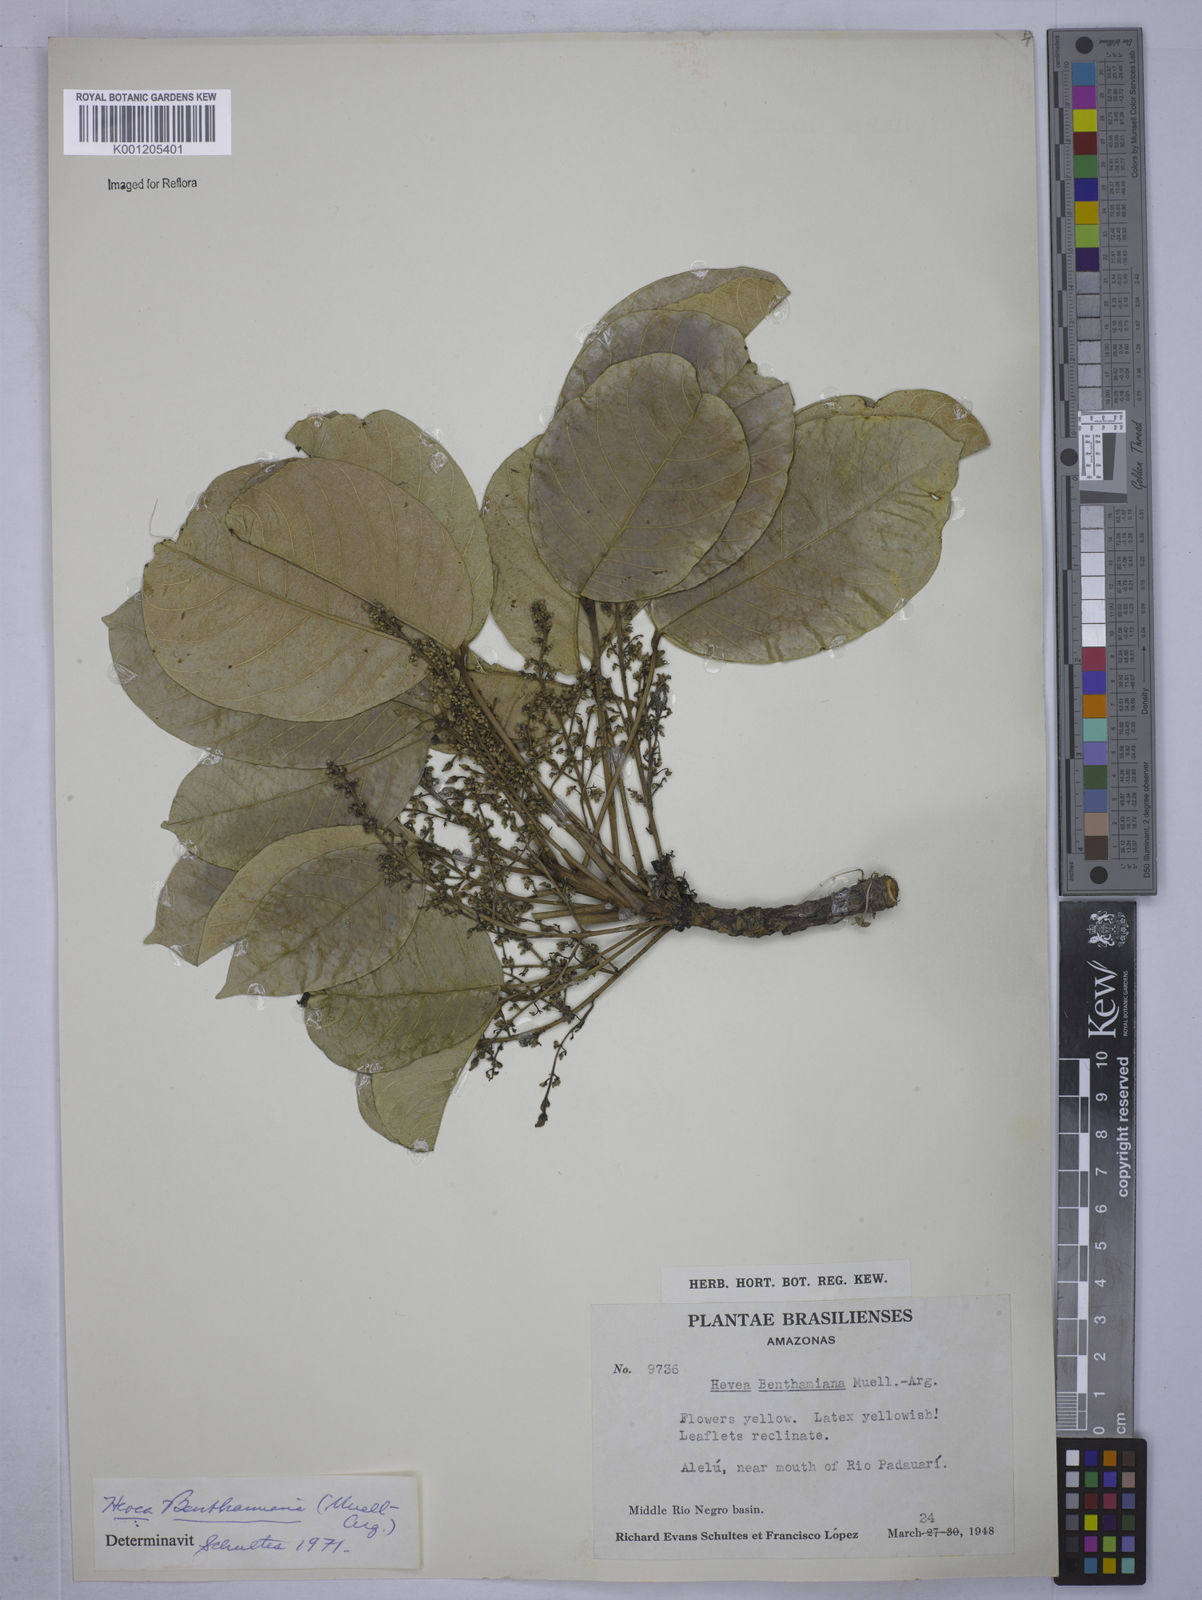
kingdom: Plantae
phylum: Tracheophyta
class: Magnoliopsida
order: Malpighiales
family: Euphorbiaceae
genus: Hevea
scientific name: Hevea
